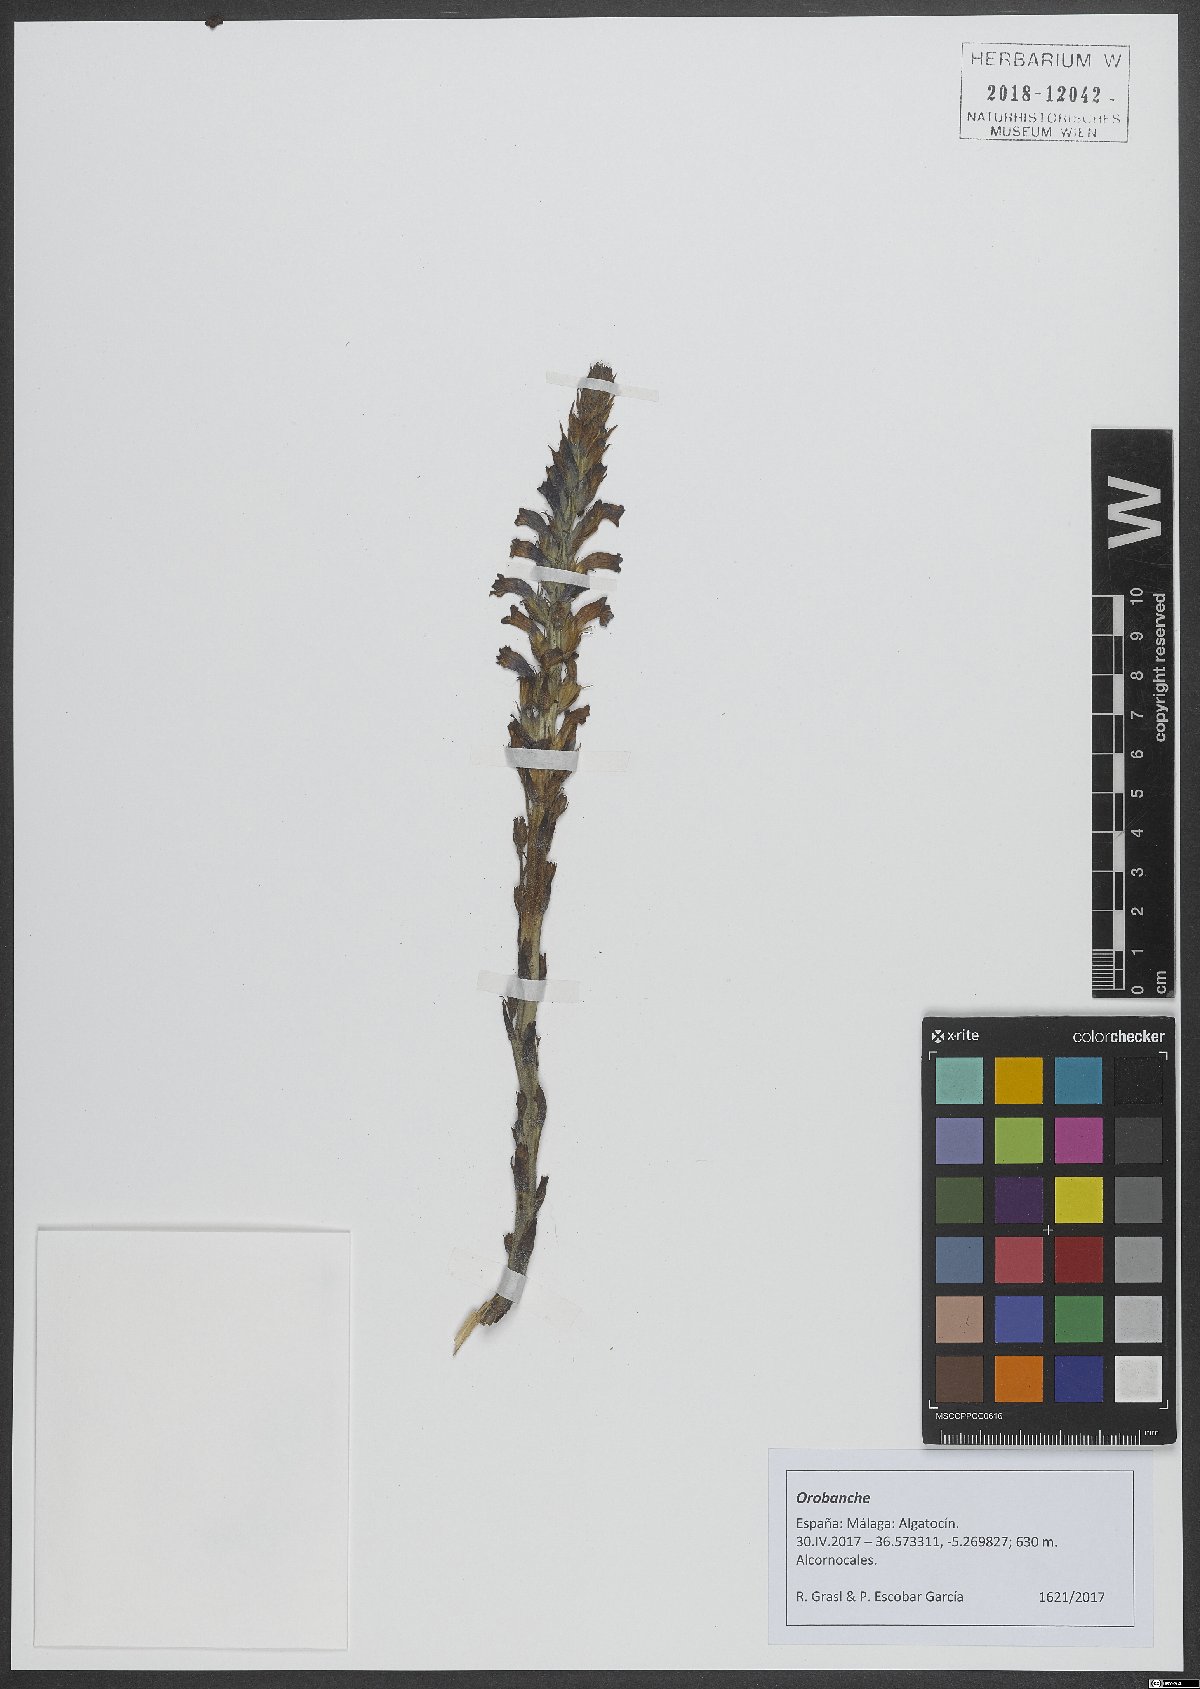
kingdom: Plantae
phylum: Tracheophyta
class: Magnoliopsida
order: Lamiales
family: Orobanchaceae
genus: Orobanche
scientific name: Orobanche
